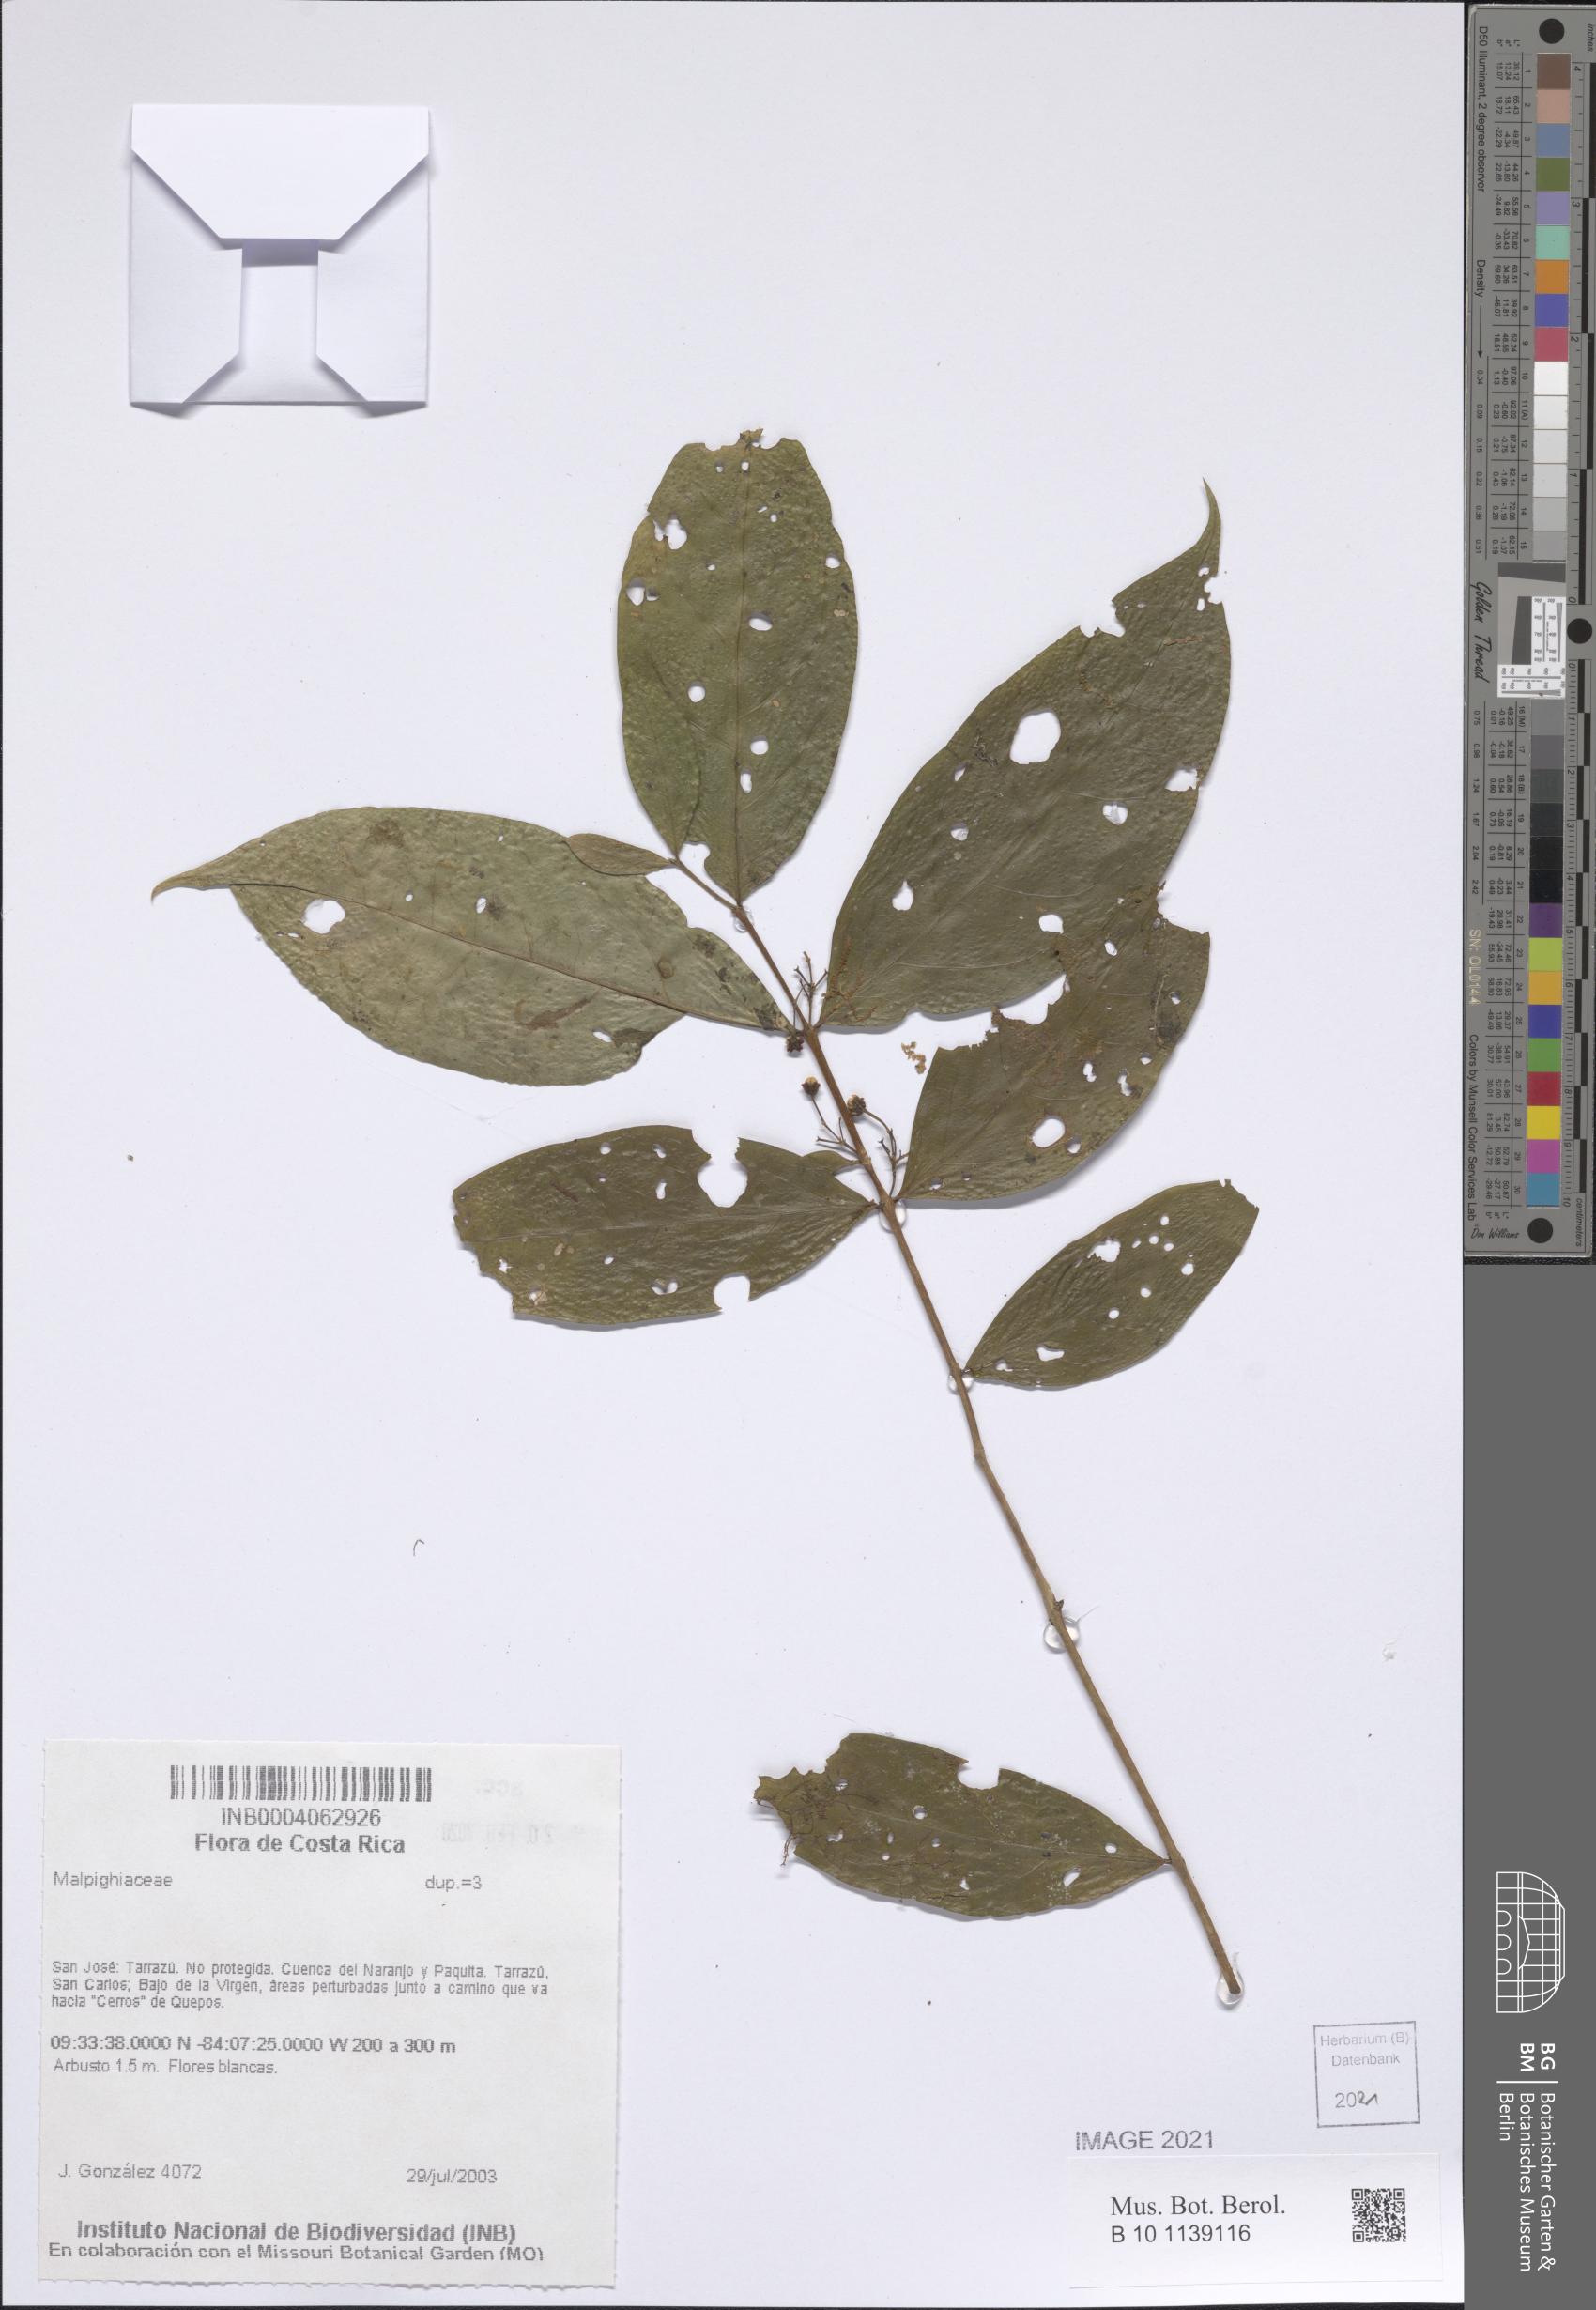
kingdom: Plantae
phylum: Tracheophyta
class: Magnoliopsida
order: Malpighiales
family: Malpighiaceae
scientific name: Malpighiaceae
